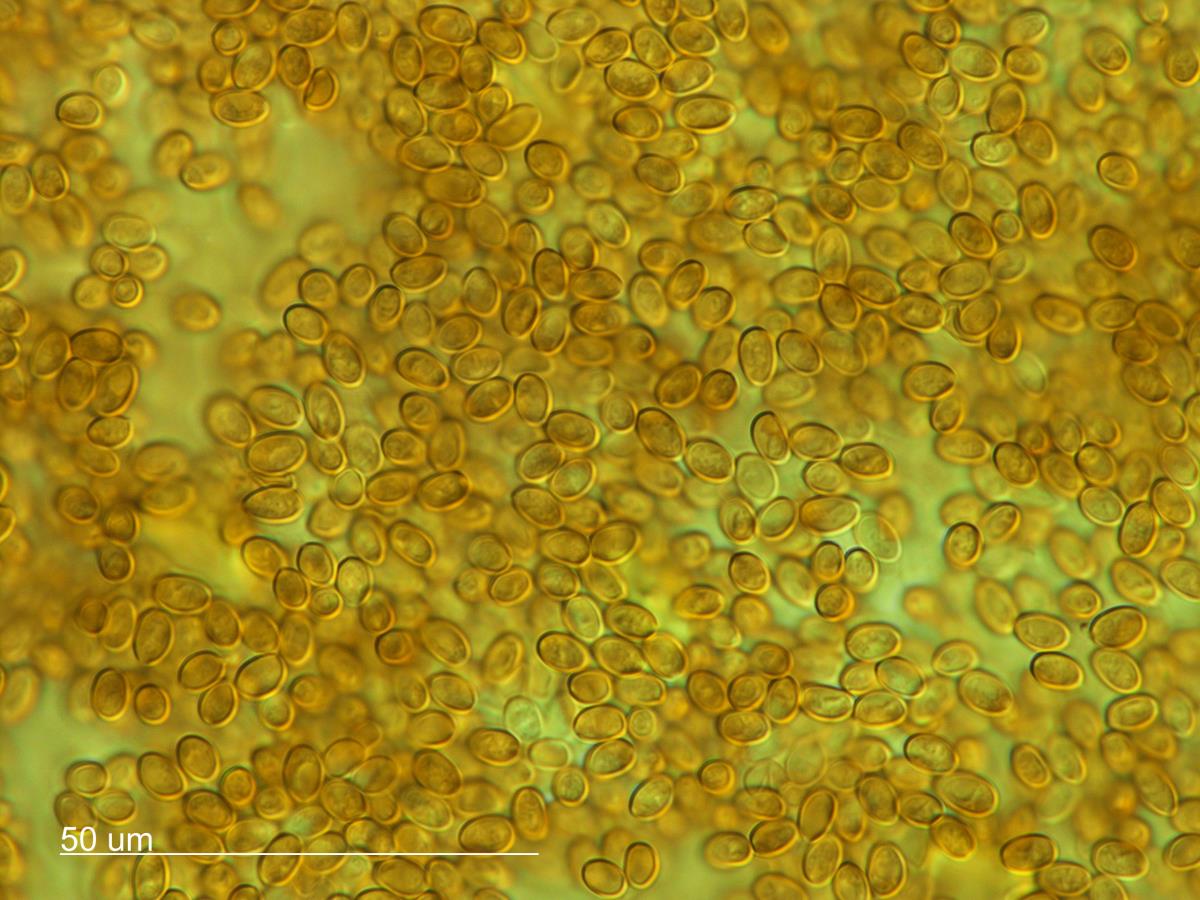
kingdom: Fungi
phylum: Basidiomycota
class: Agaricomycetes
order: Agaricales
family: Strophariaceae
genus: Pholiota
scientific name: Pholiota
